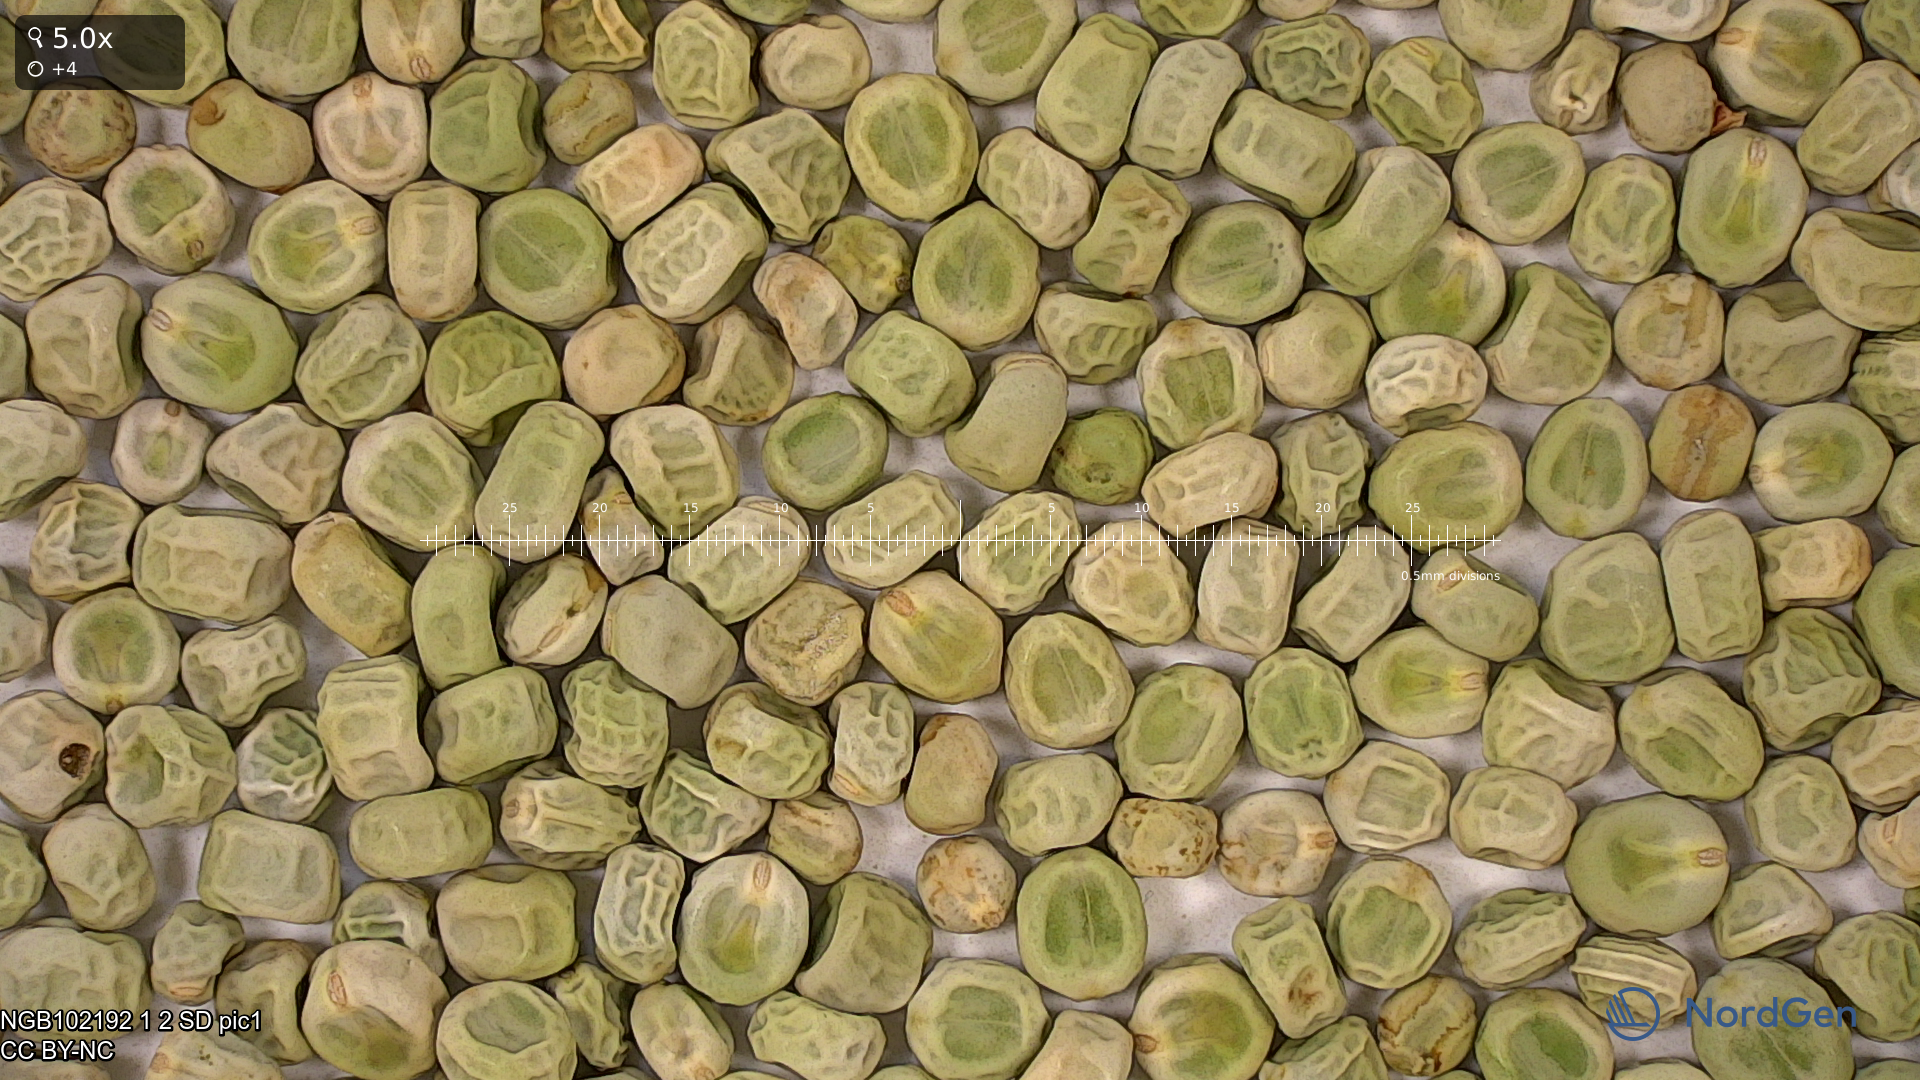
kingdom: Plantae
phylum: Tracheophyta
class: Magnoliopsida
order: Fabales
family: Fabaceae
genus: Lathyrus
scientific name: Lathyrus oleraceus
